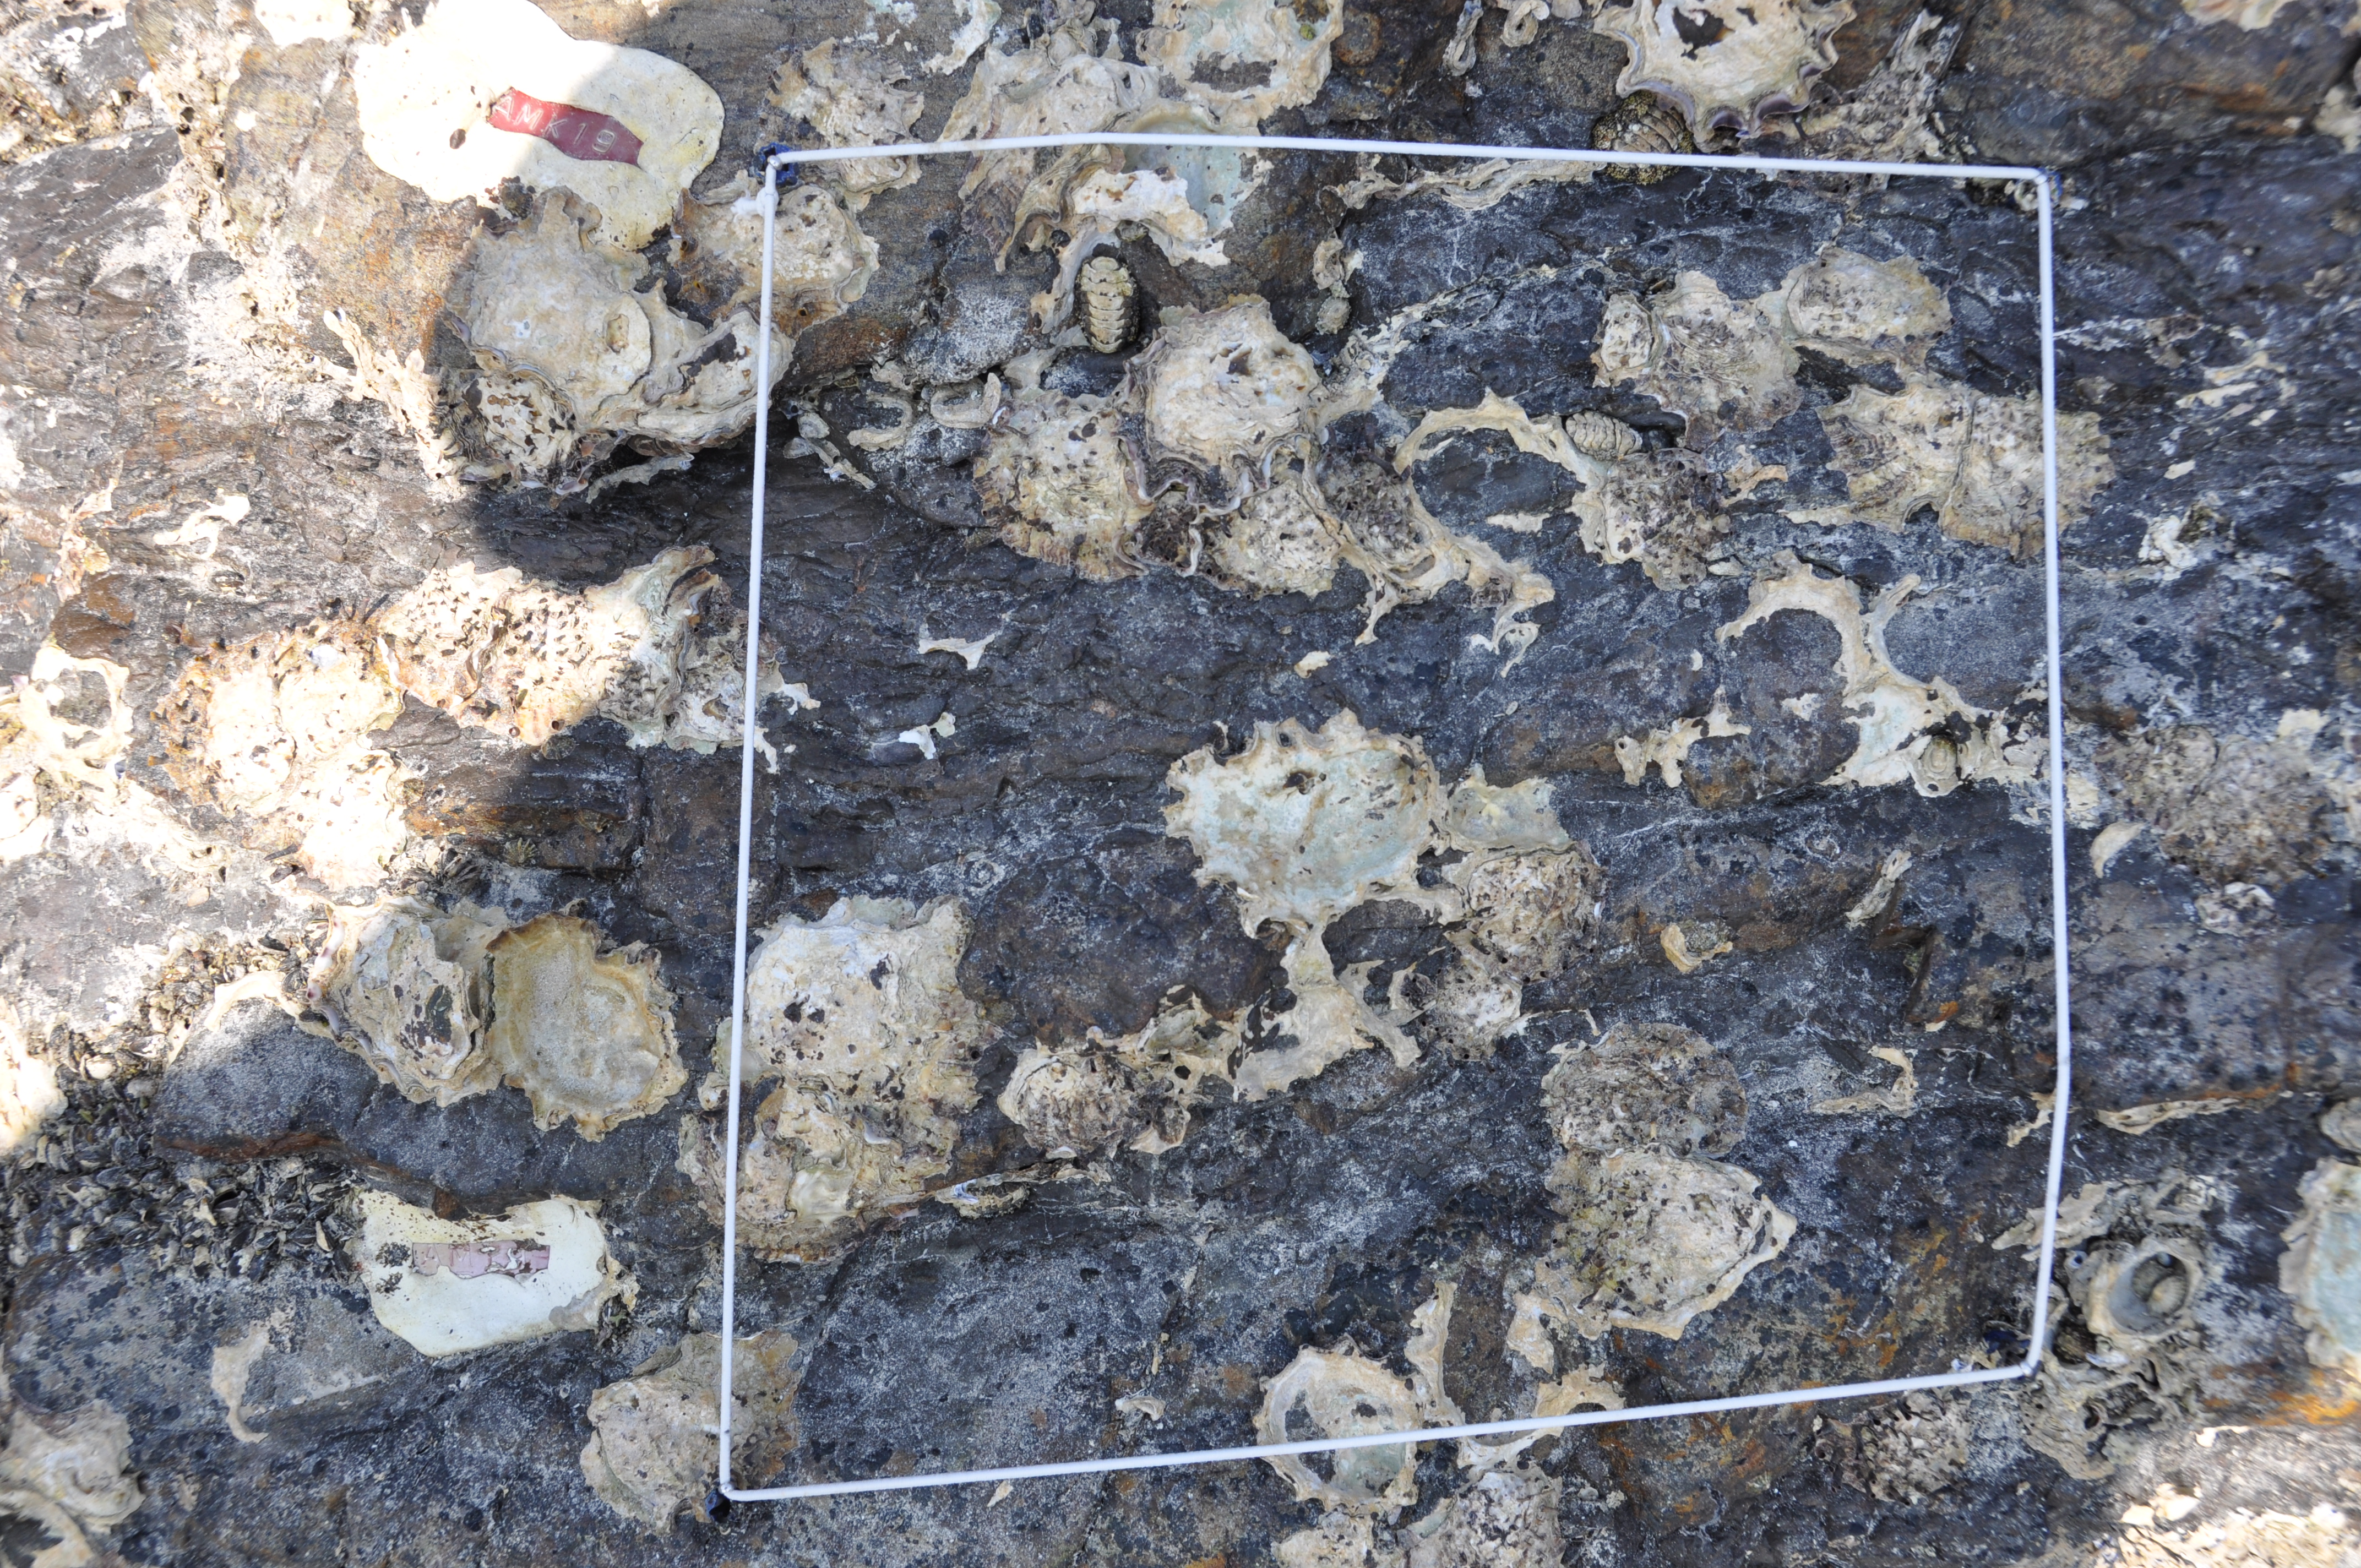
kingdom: Chromista
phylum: Ochrophyta
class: Phaeophyceae
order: Ishigeales
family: Ishigeaceae
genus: Ishige
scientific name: Ishige okamurae
